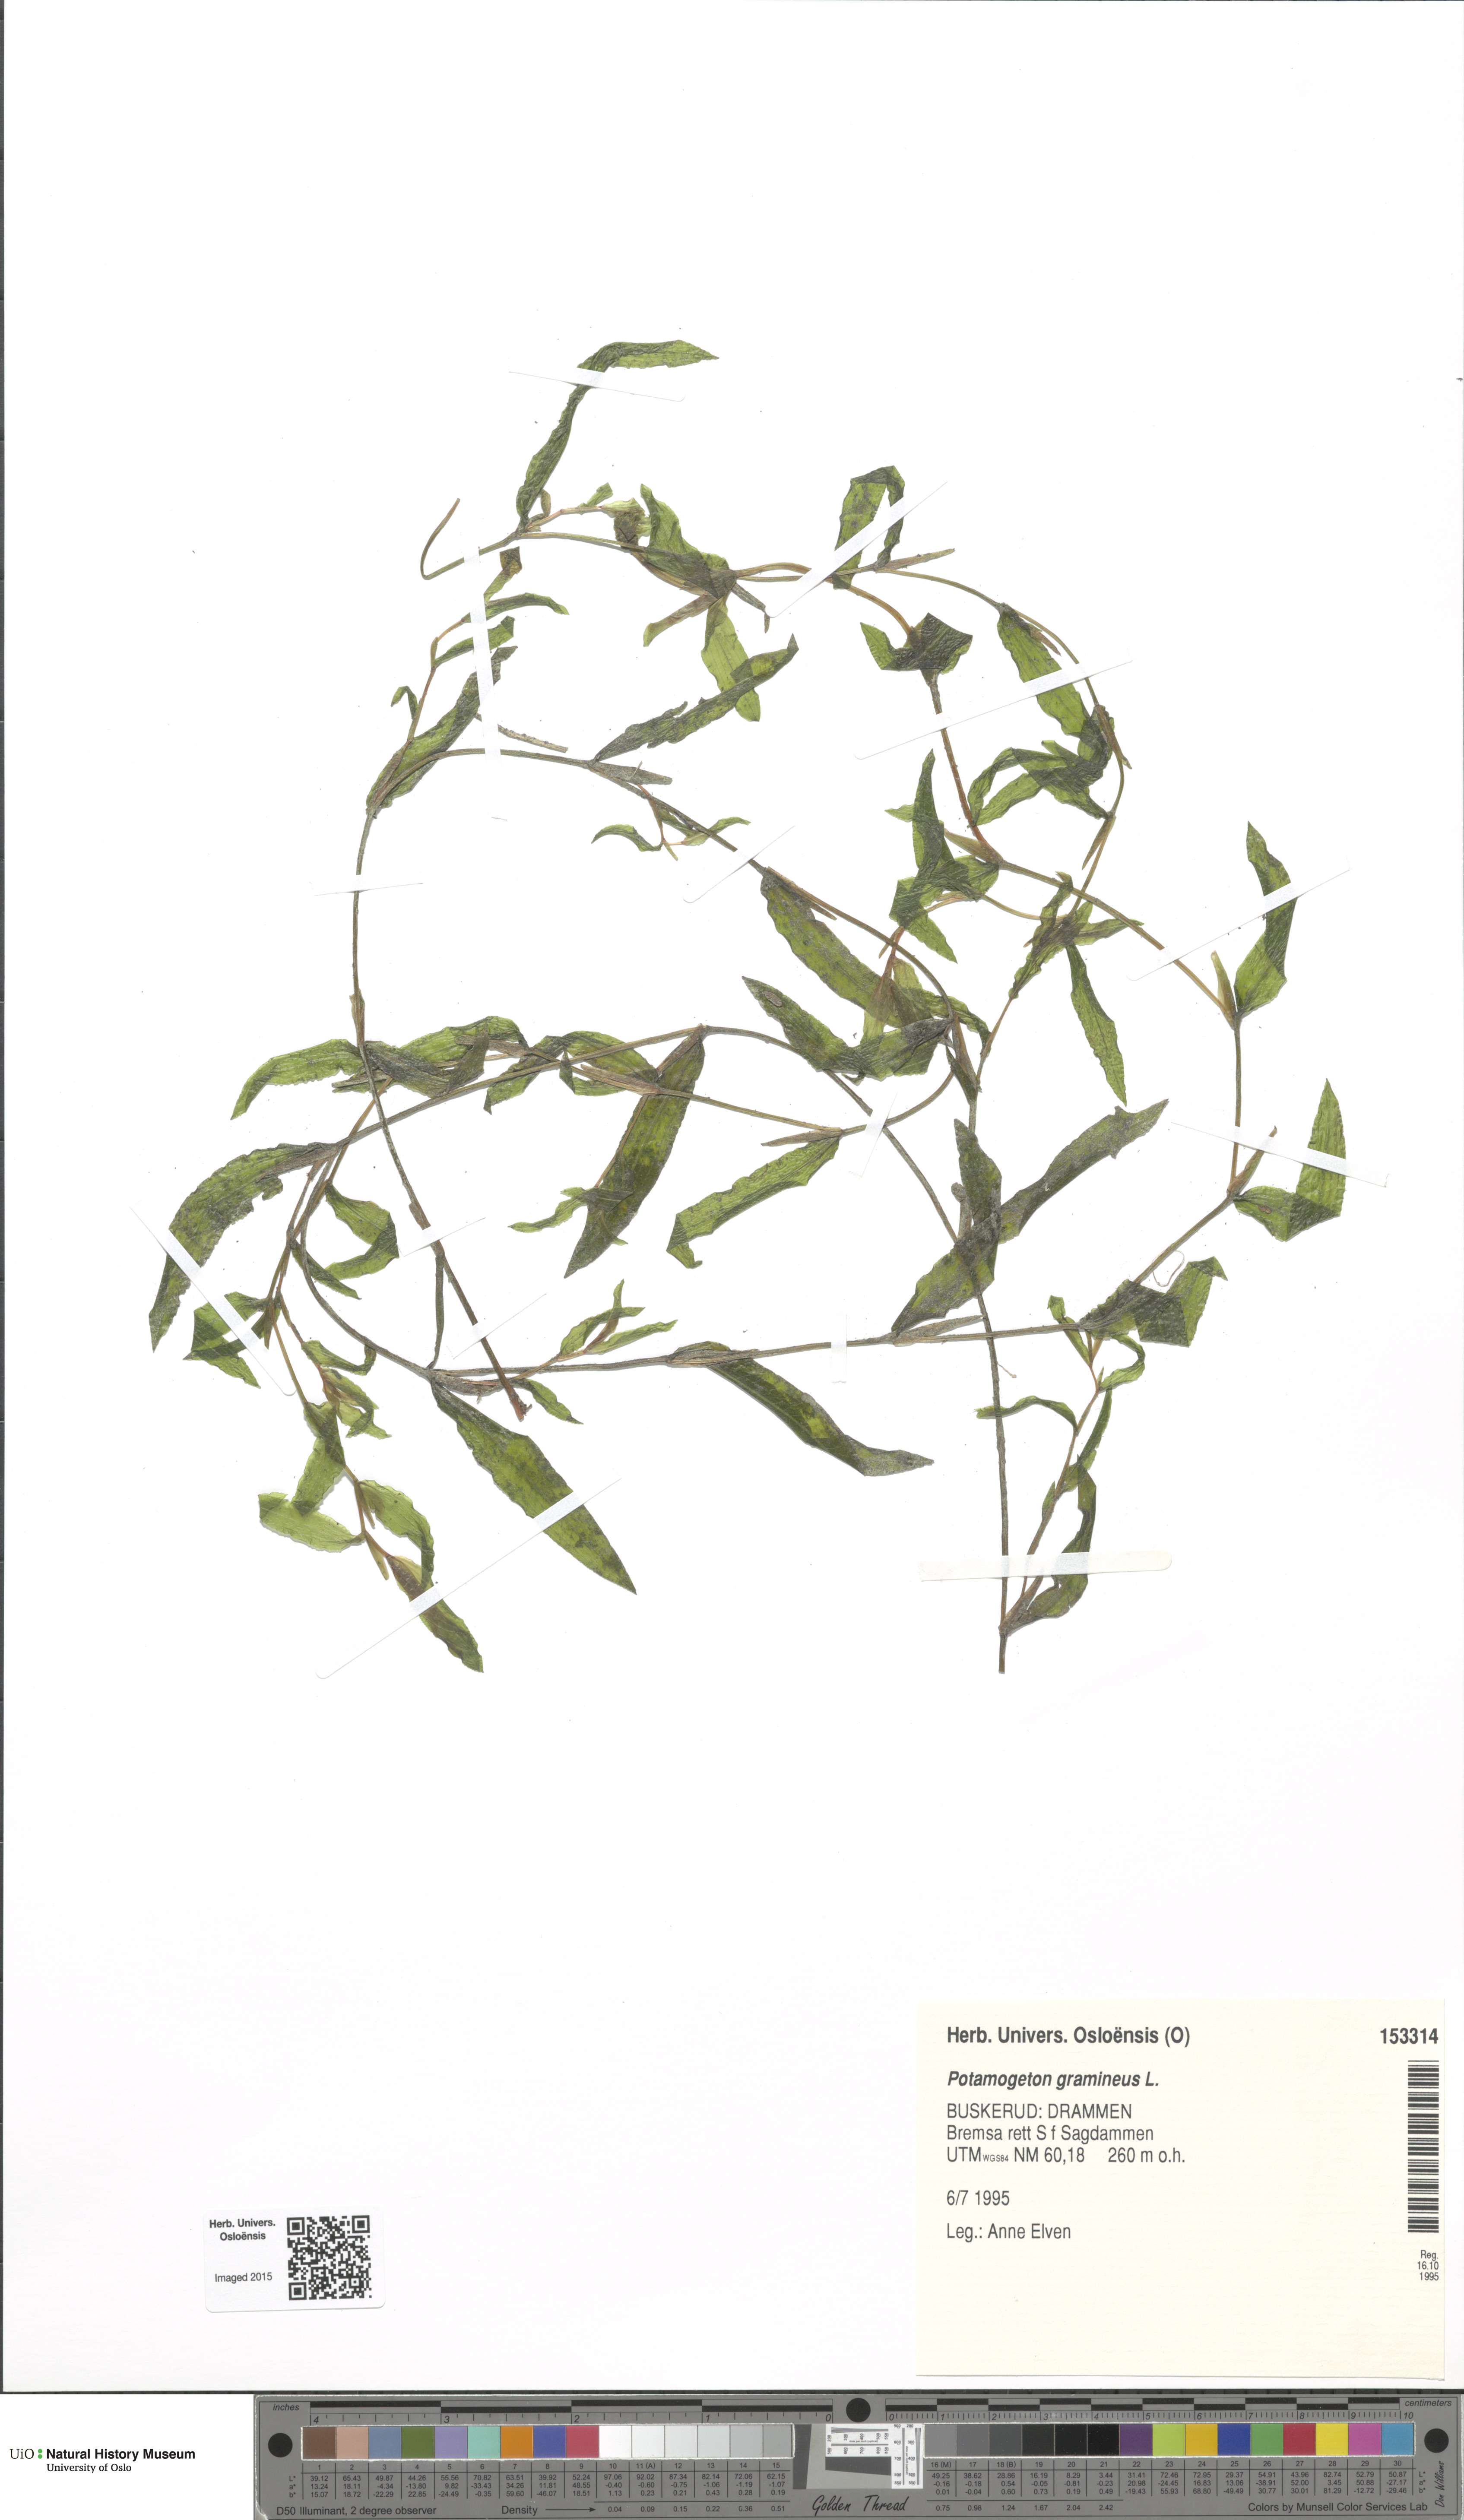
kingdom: Plantae
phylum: Tracheophyta
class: Liliopsida
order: Alismatales
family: Potamogetonaceae
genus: Potamogeton
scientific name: Potamogeton nitens
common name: Pondweed
